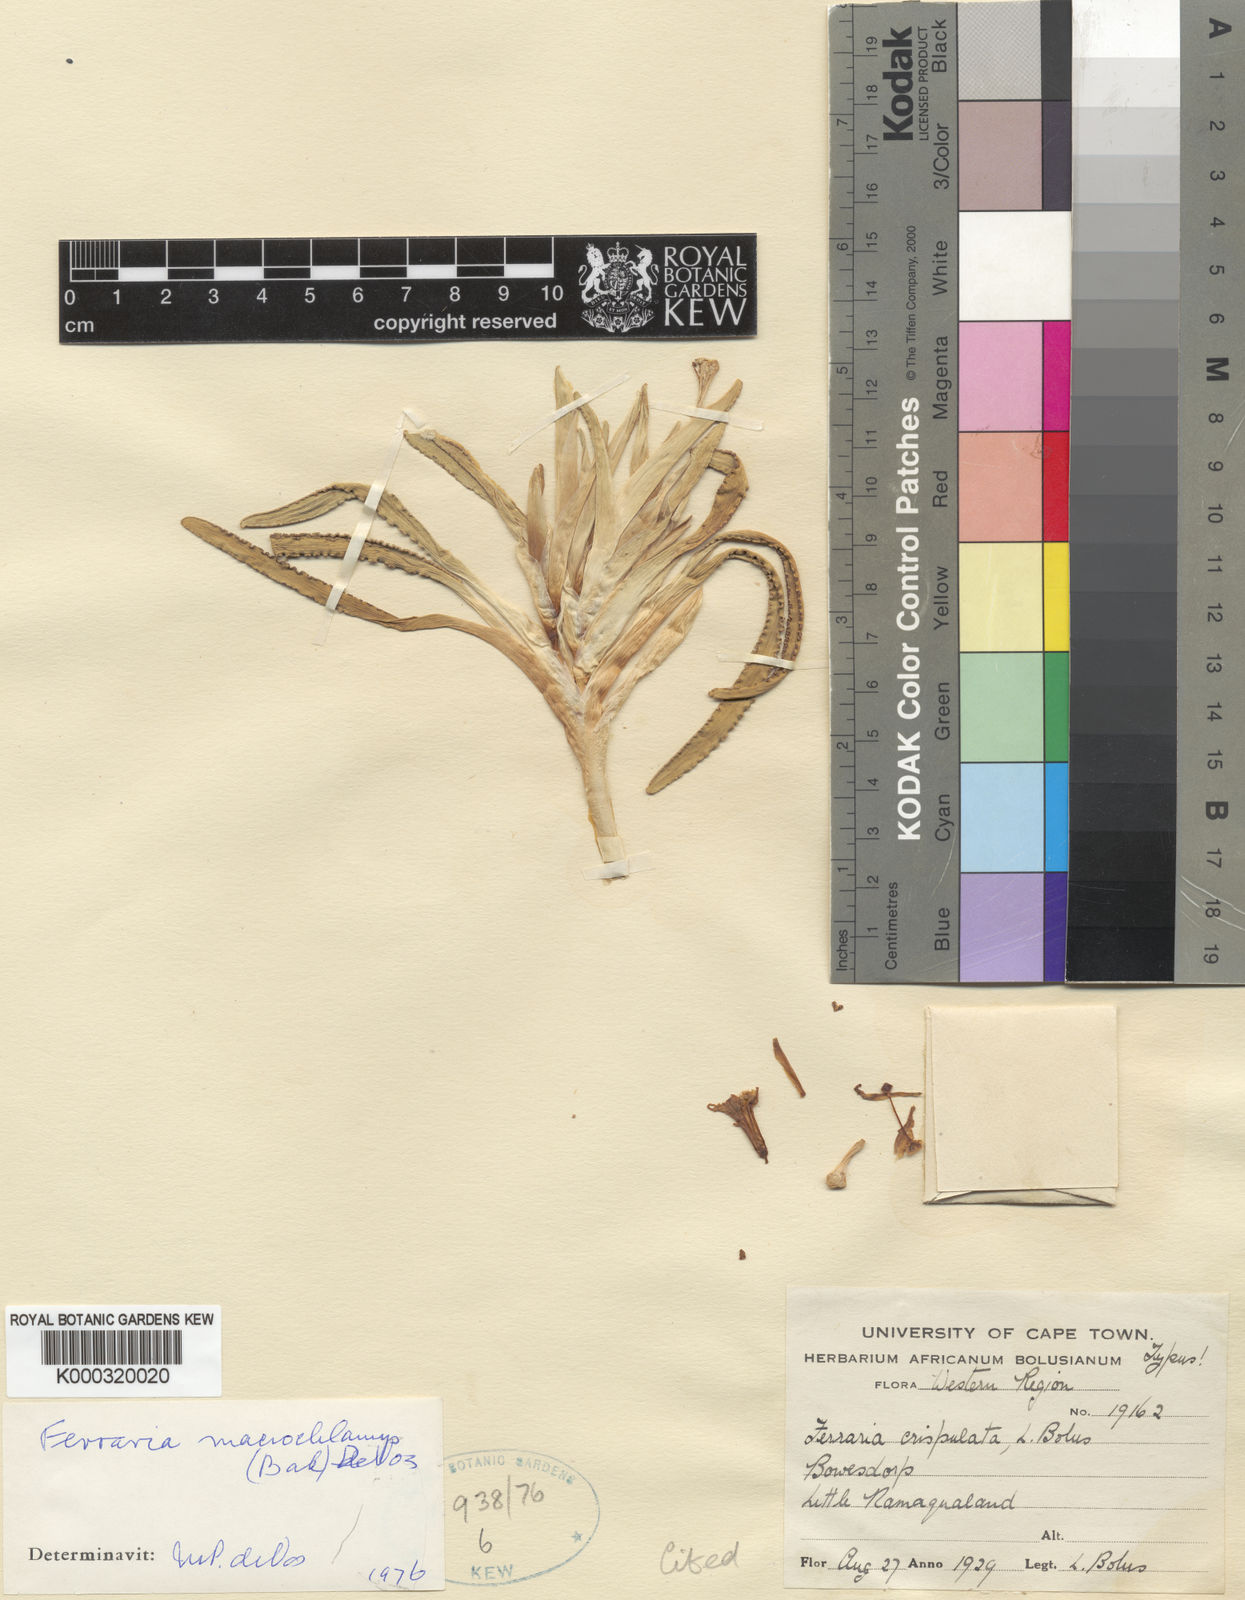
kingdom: Plantae
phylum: Tracheophyta
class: Liliopsida
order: Asparagales
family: Iridaceae
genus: Ferraria
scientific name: Ferraria macrochlamys
